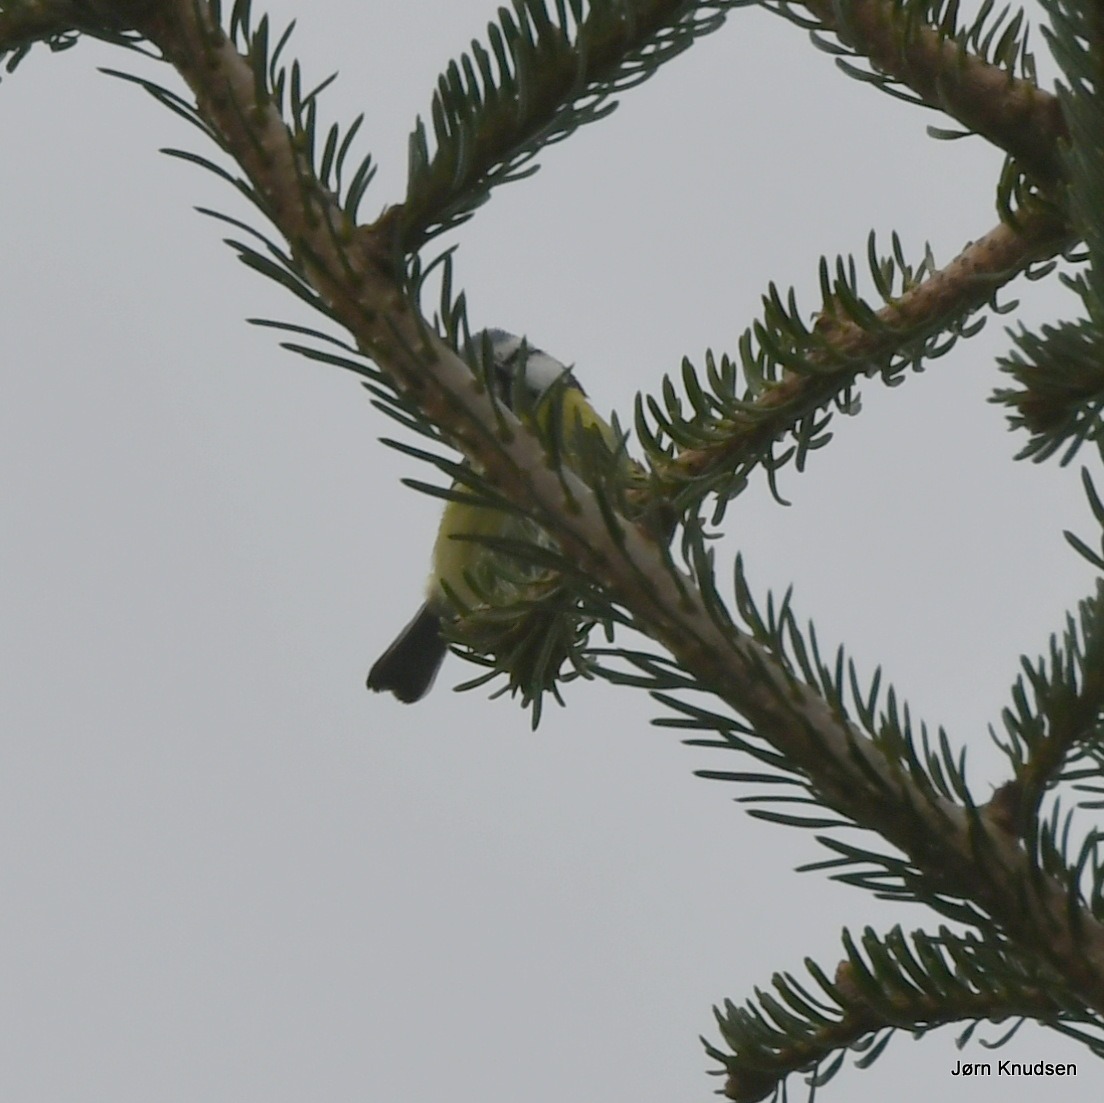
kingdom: Animalia
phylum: Chordata
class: Aves
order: Passeriformes
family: Paridae
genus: Cyanistes
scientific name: Cyanistes caeruleus
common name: Blåmejse
